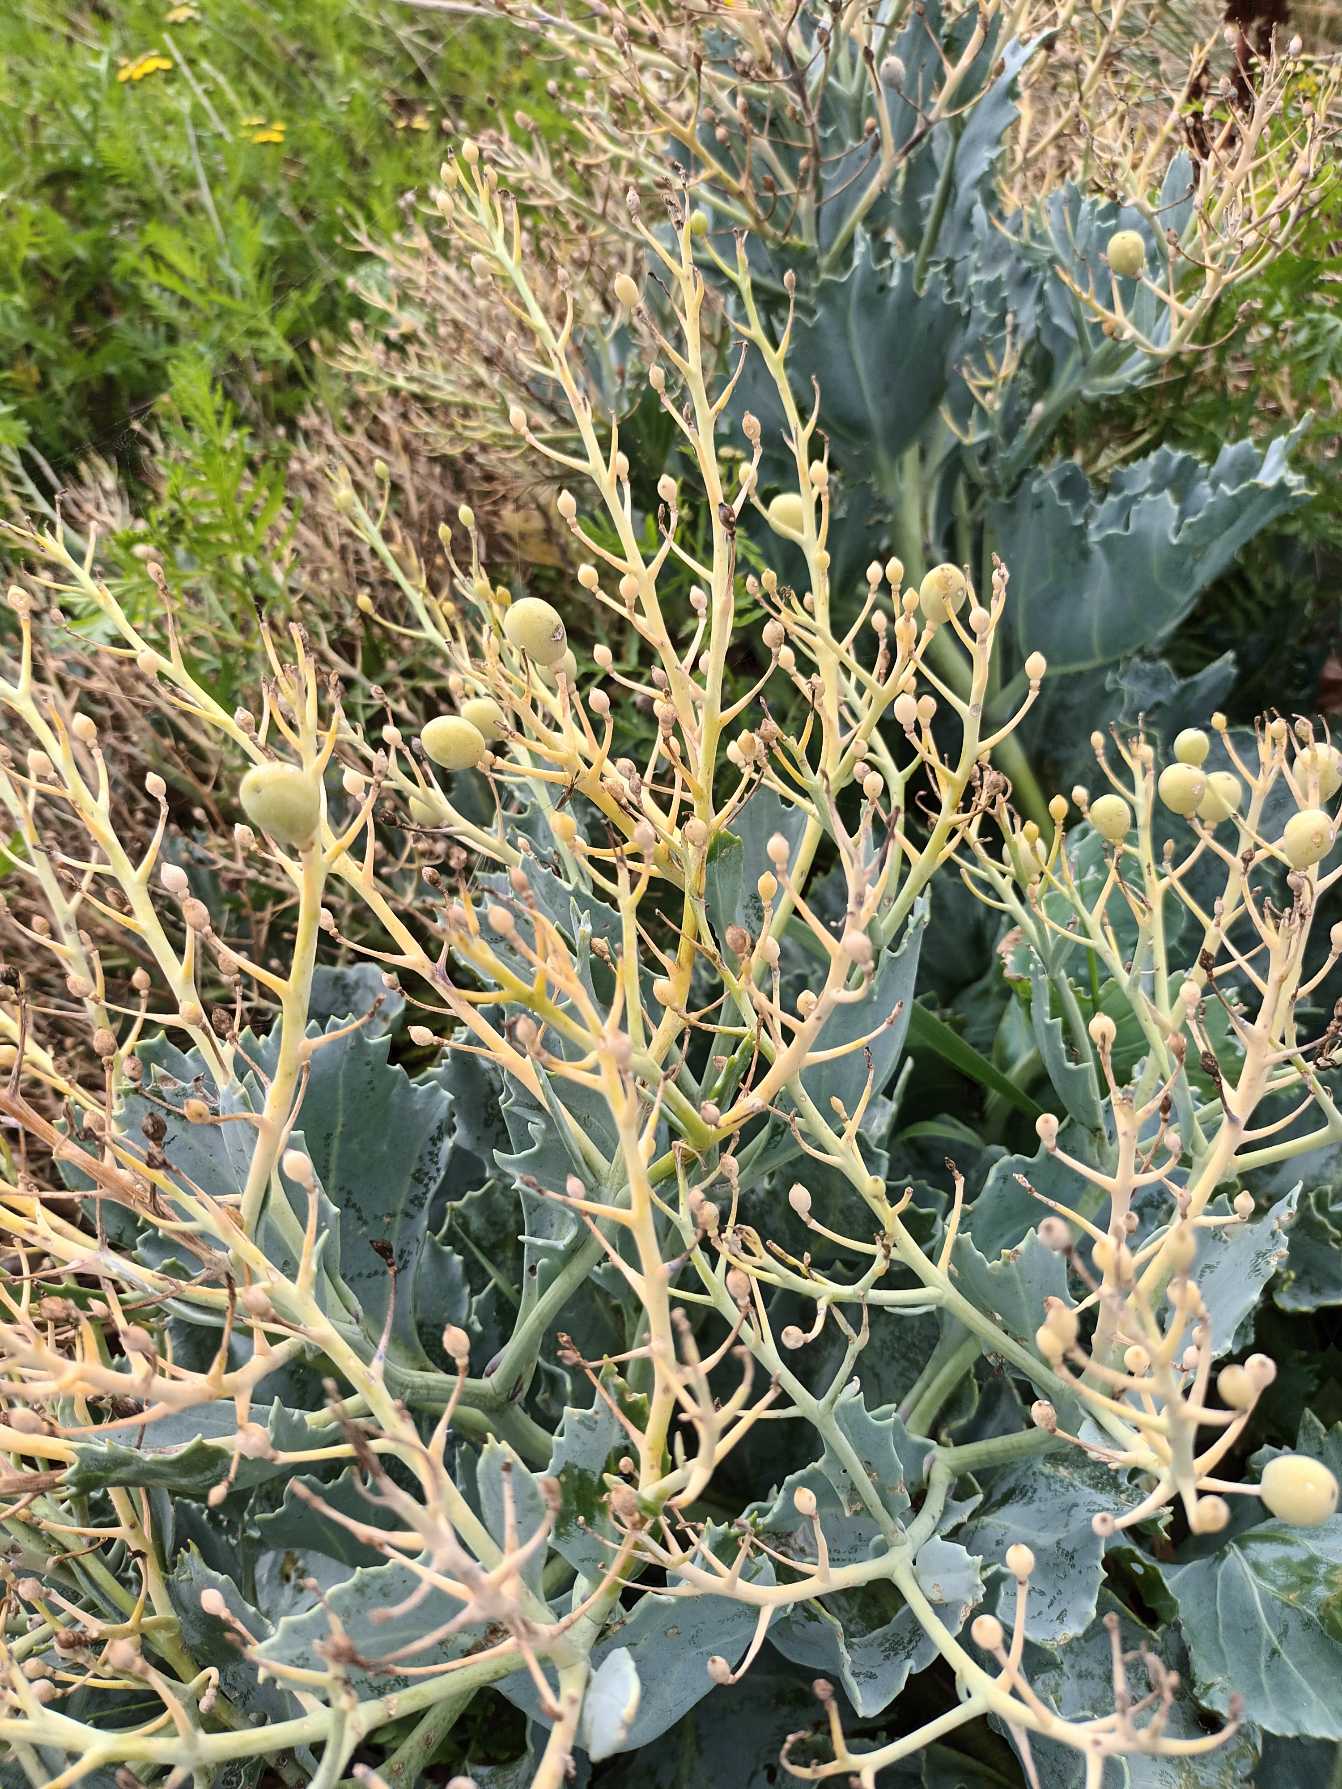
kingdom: Plantae
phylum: Tracheophyta
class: Magnoliopsida
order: Brassicales
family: Brassicaceae
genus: Crambe
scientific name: Crambe maritima
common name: Strandkål
